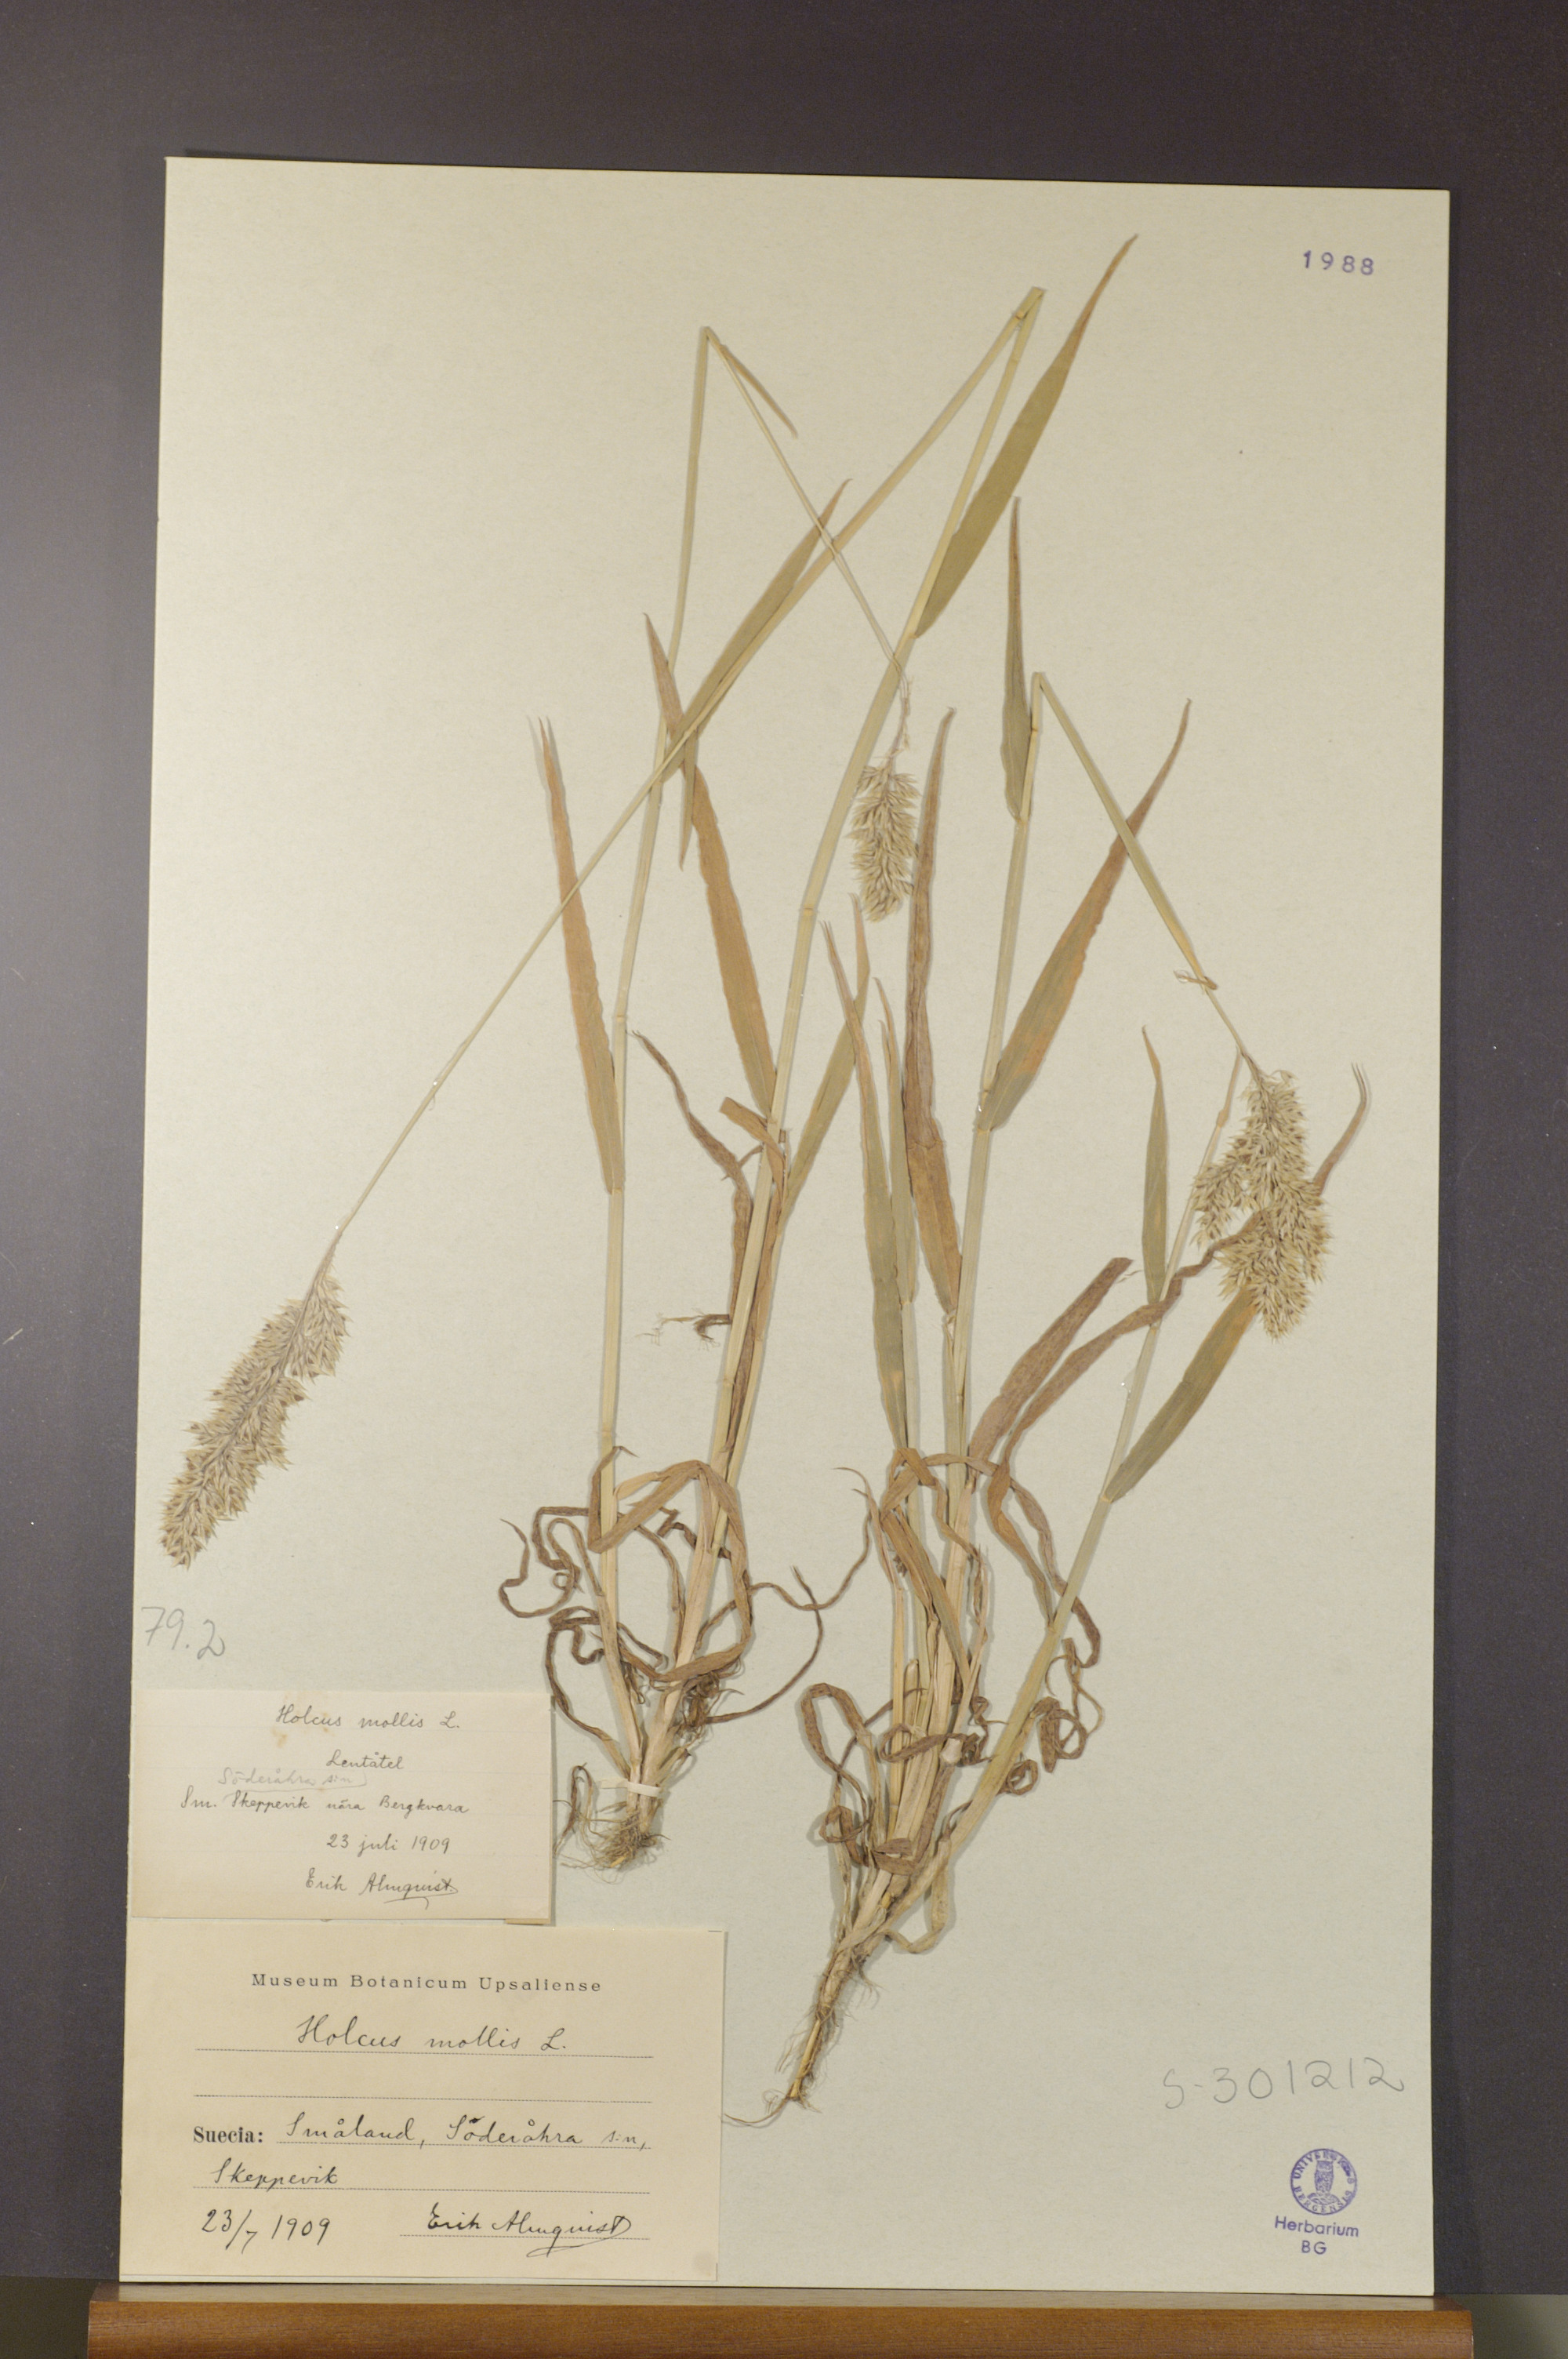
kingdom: Plantae
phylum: Tracheophyta
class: Liliopsida
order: Poales
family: Poaceae
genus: Holcus
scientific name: Holcus mollis
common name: Creeping velvetgrass
